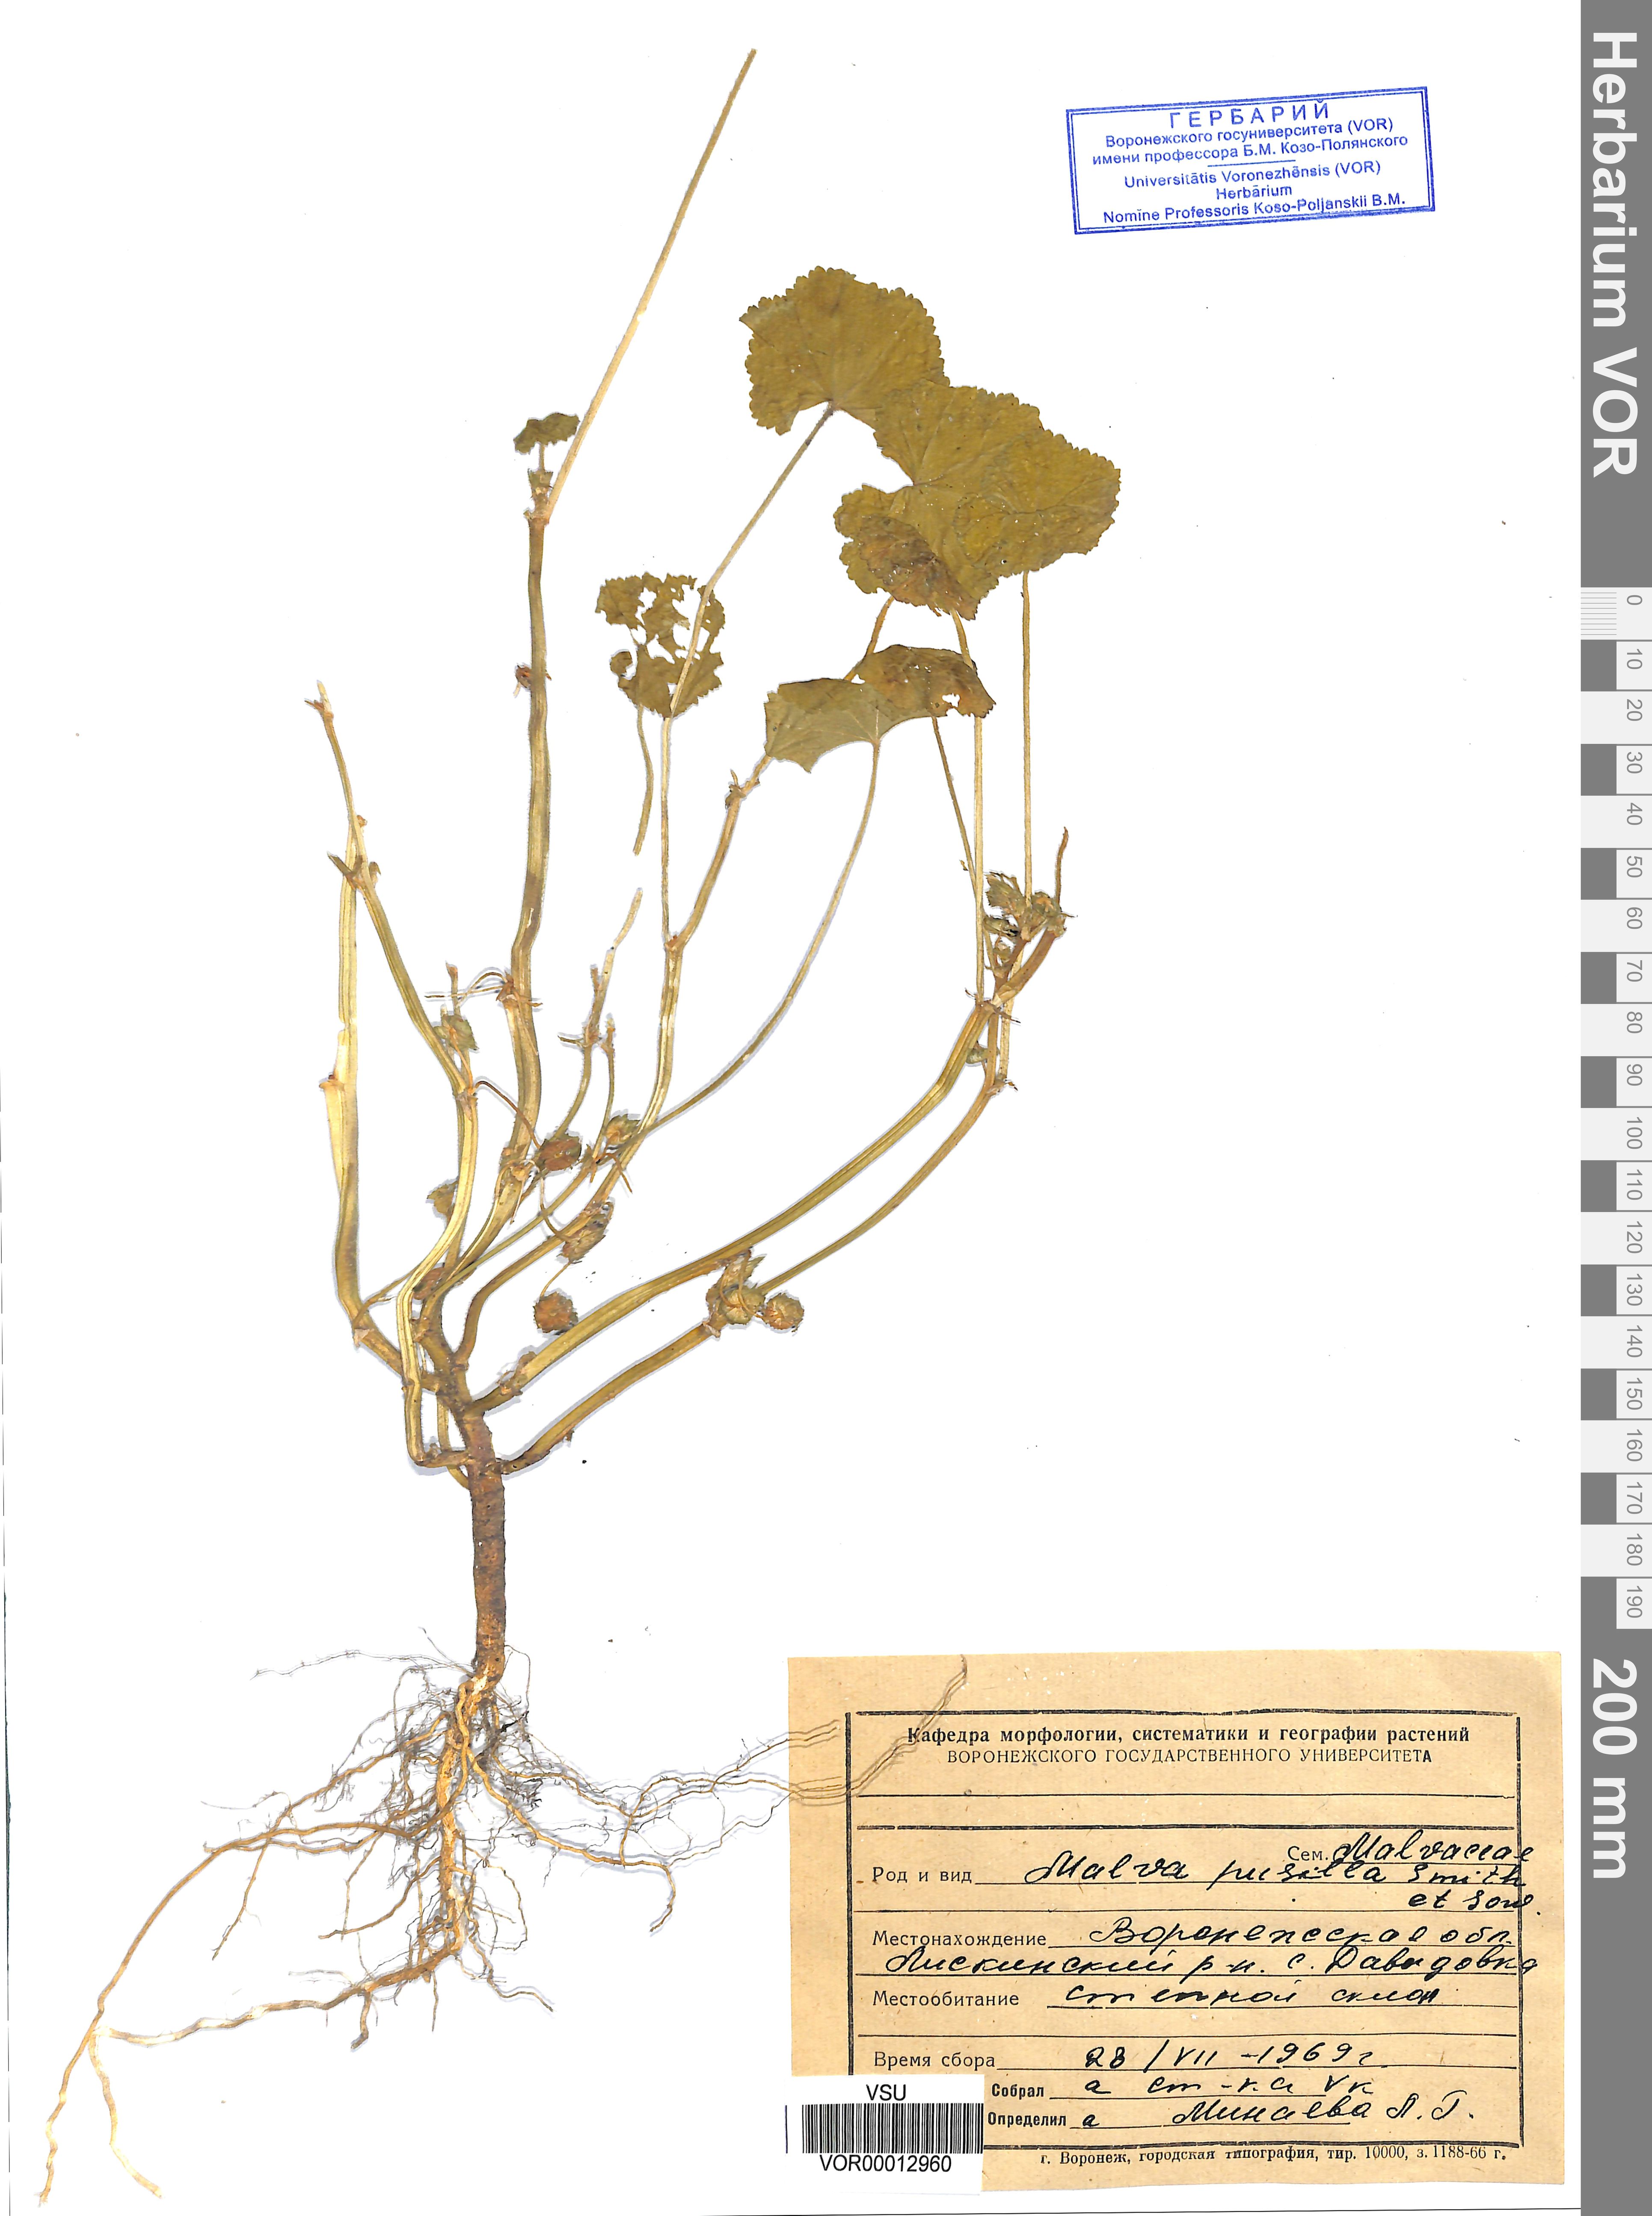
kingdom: Plantae
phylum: Tracheophyta
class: Magnoliopsida
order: Malvales
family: Malvaceae
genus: Malva
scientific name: Malva pusilla
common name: Small mallow
